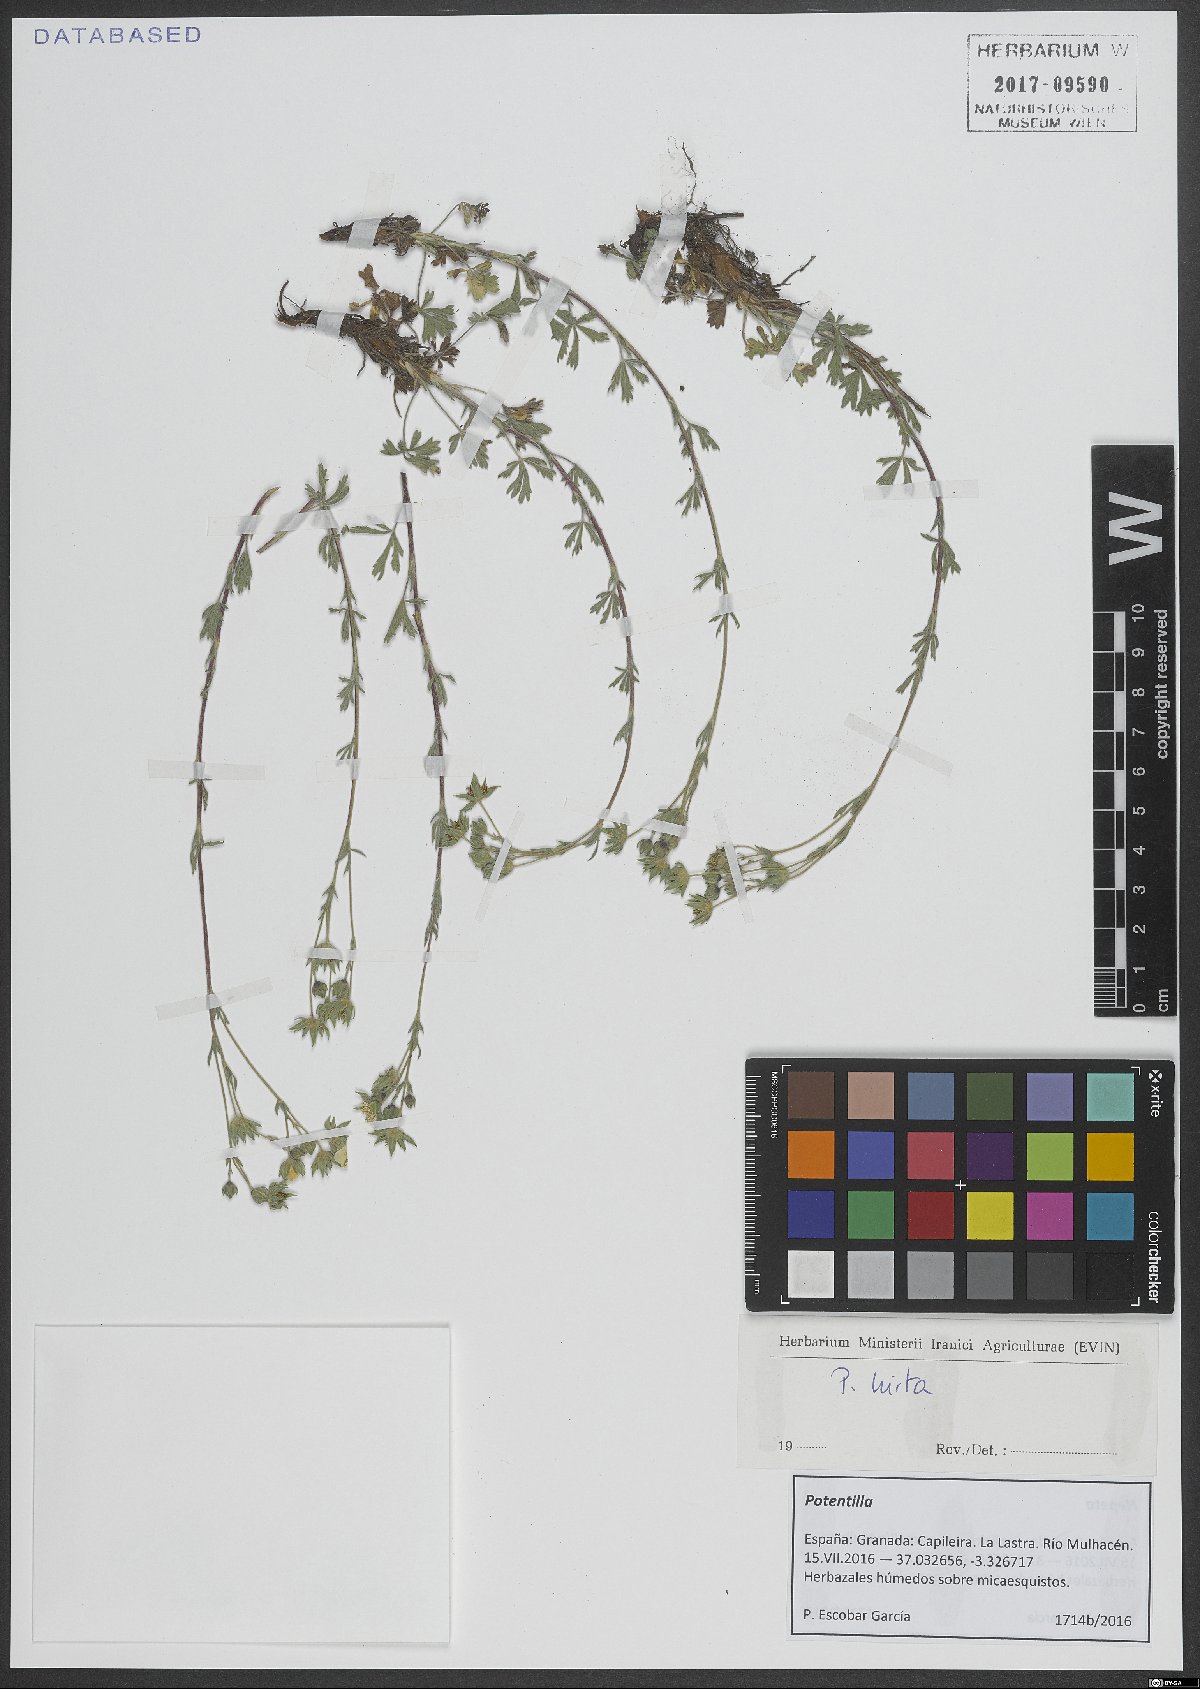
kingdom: Plantae
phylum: Tracheophyta
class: Magnoliopsida
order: Rosales
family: Rosaceae
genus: Potentilla
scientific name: Potentilla hirta
